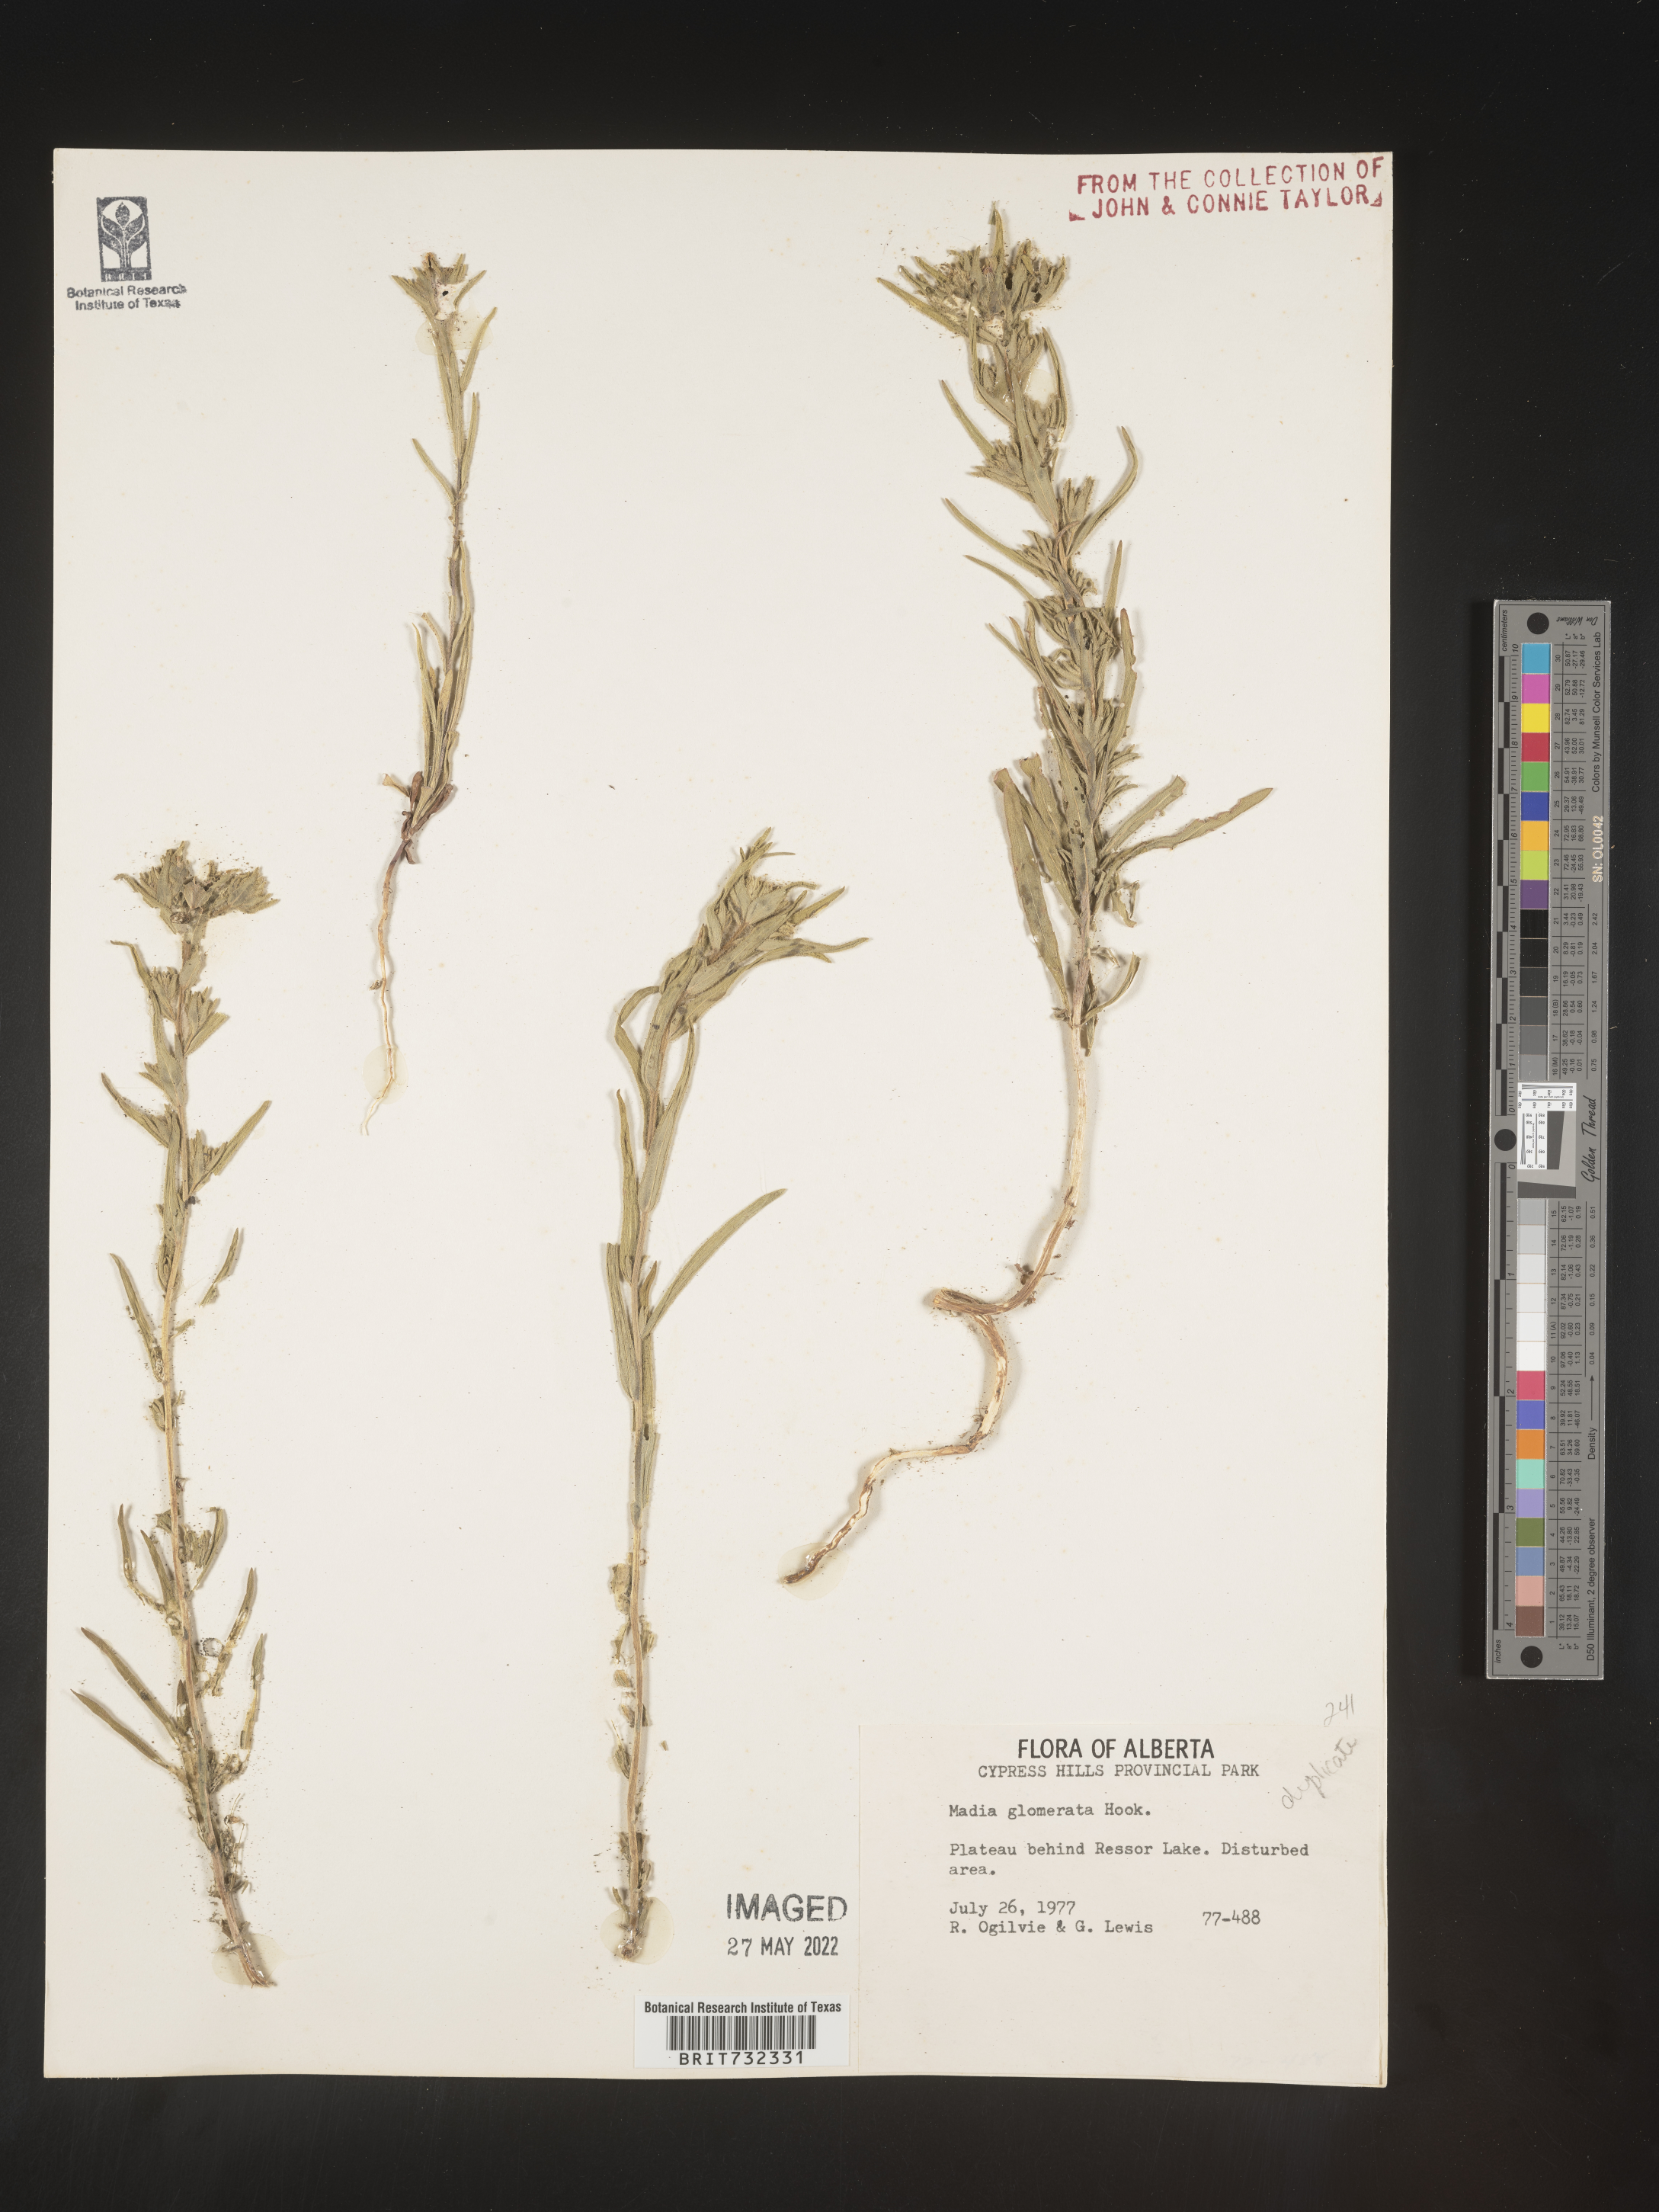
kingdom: Plantae
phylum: Tracheophyta
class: Magnoliopsida
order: Asterales
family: Asteraceae
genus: Madia
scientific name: Madia glomerata
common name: Mountain tarweed
